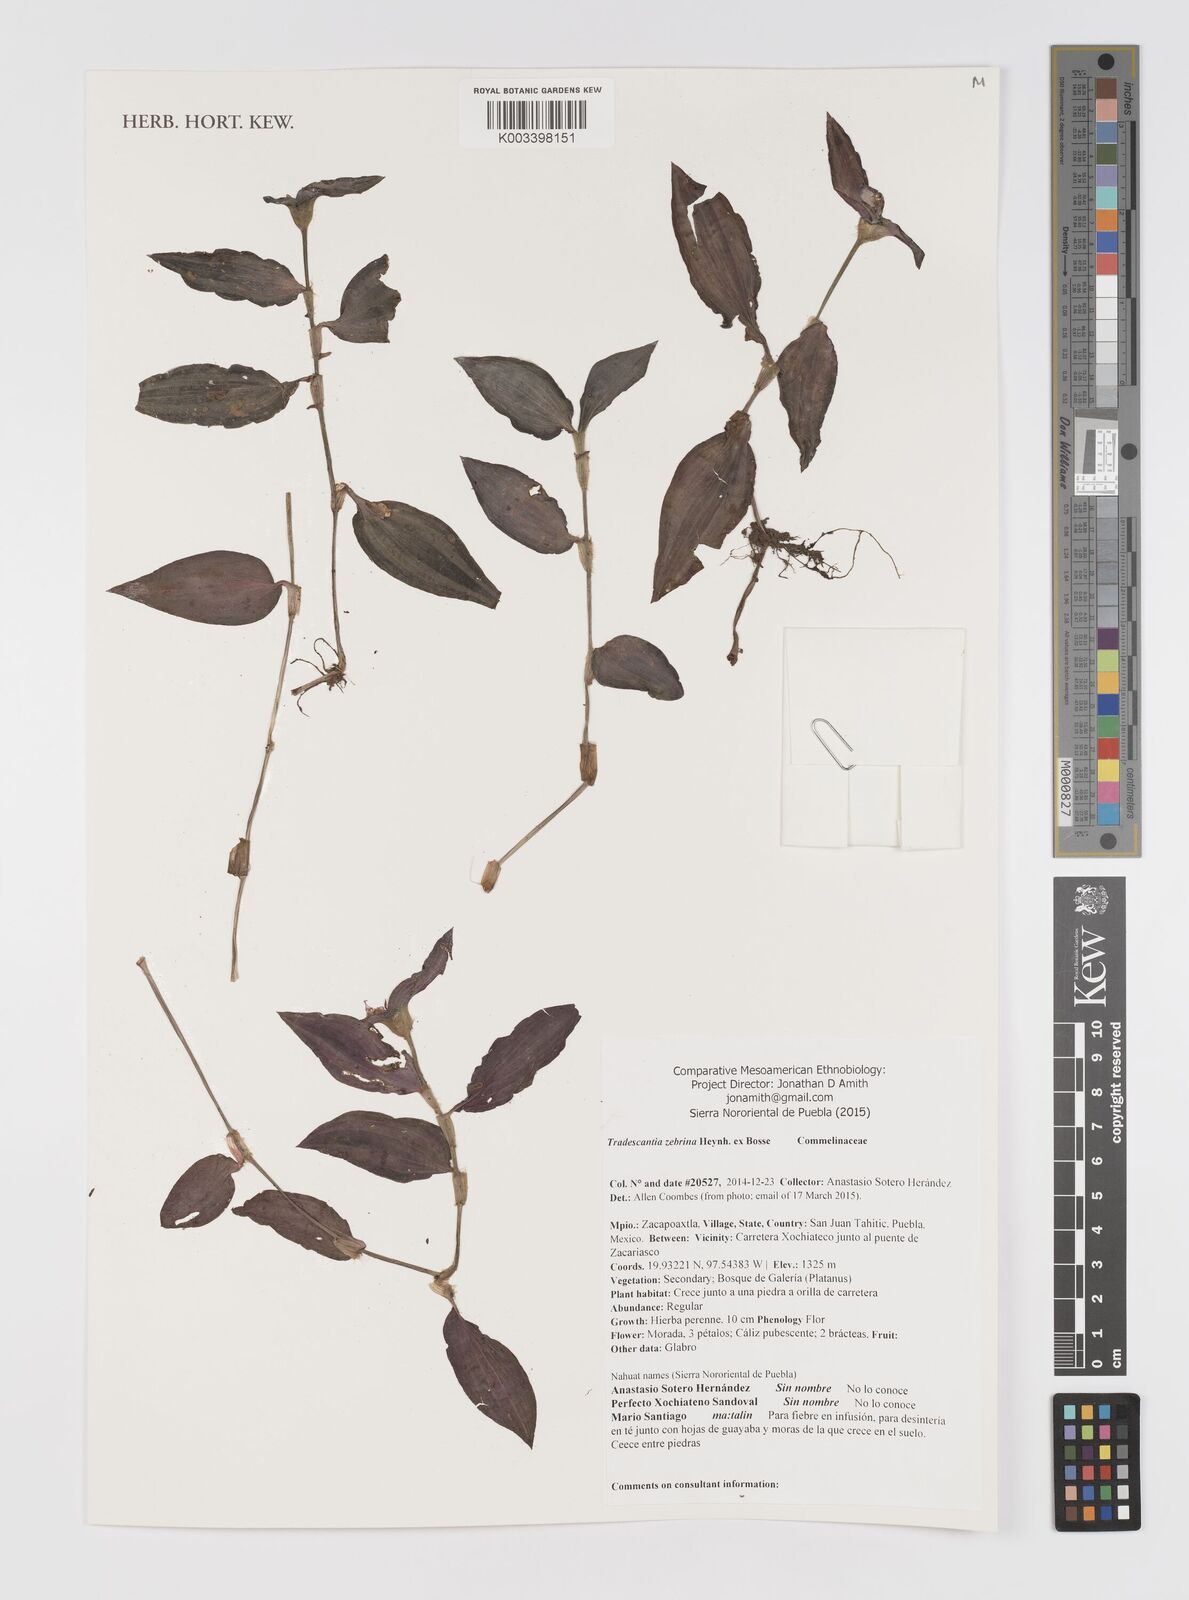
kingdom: Plantae
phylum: Tracheophyta
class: Liliopsida
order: Commelinales
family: Commelinaceae
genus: Tradescantia
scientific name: Tradescantia zebrina
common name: Inchplant
